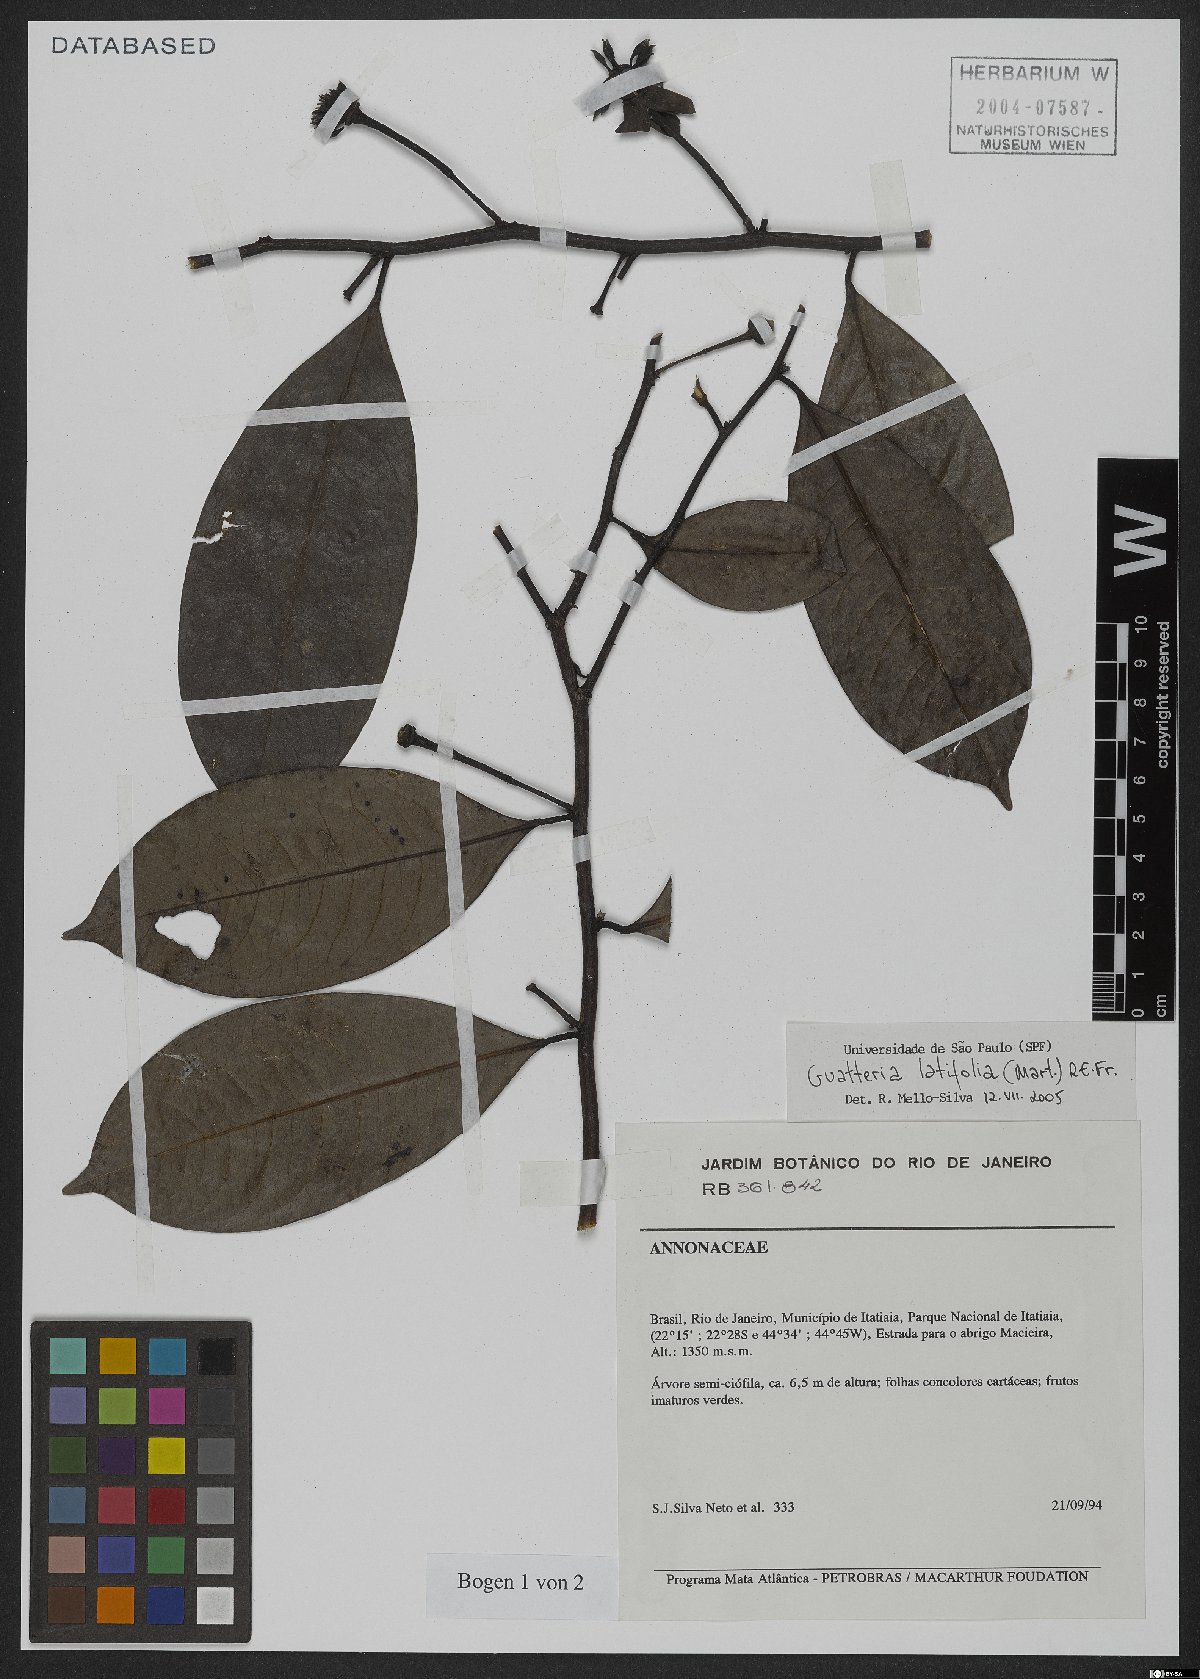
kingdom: Plantae
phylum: Tracheophyta
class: Magnoliopsida
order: Magnoliales
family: Annonaceae
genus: Guatteria
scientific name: Guatteria latifolia
